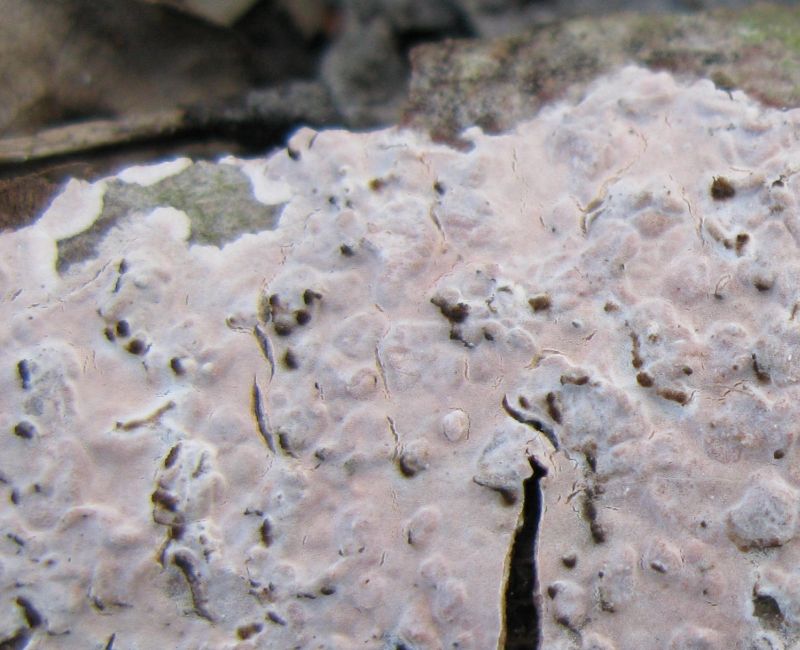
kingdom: Fungi
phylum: Basidiomycota
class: Agaricomycetes
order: Russulales
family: Peniophoraceae
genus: Peniophora
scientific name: Peniophora polygonia
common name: polygon-voksskind
